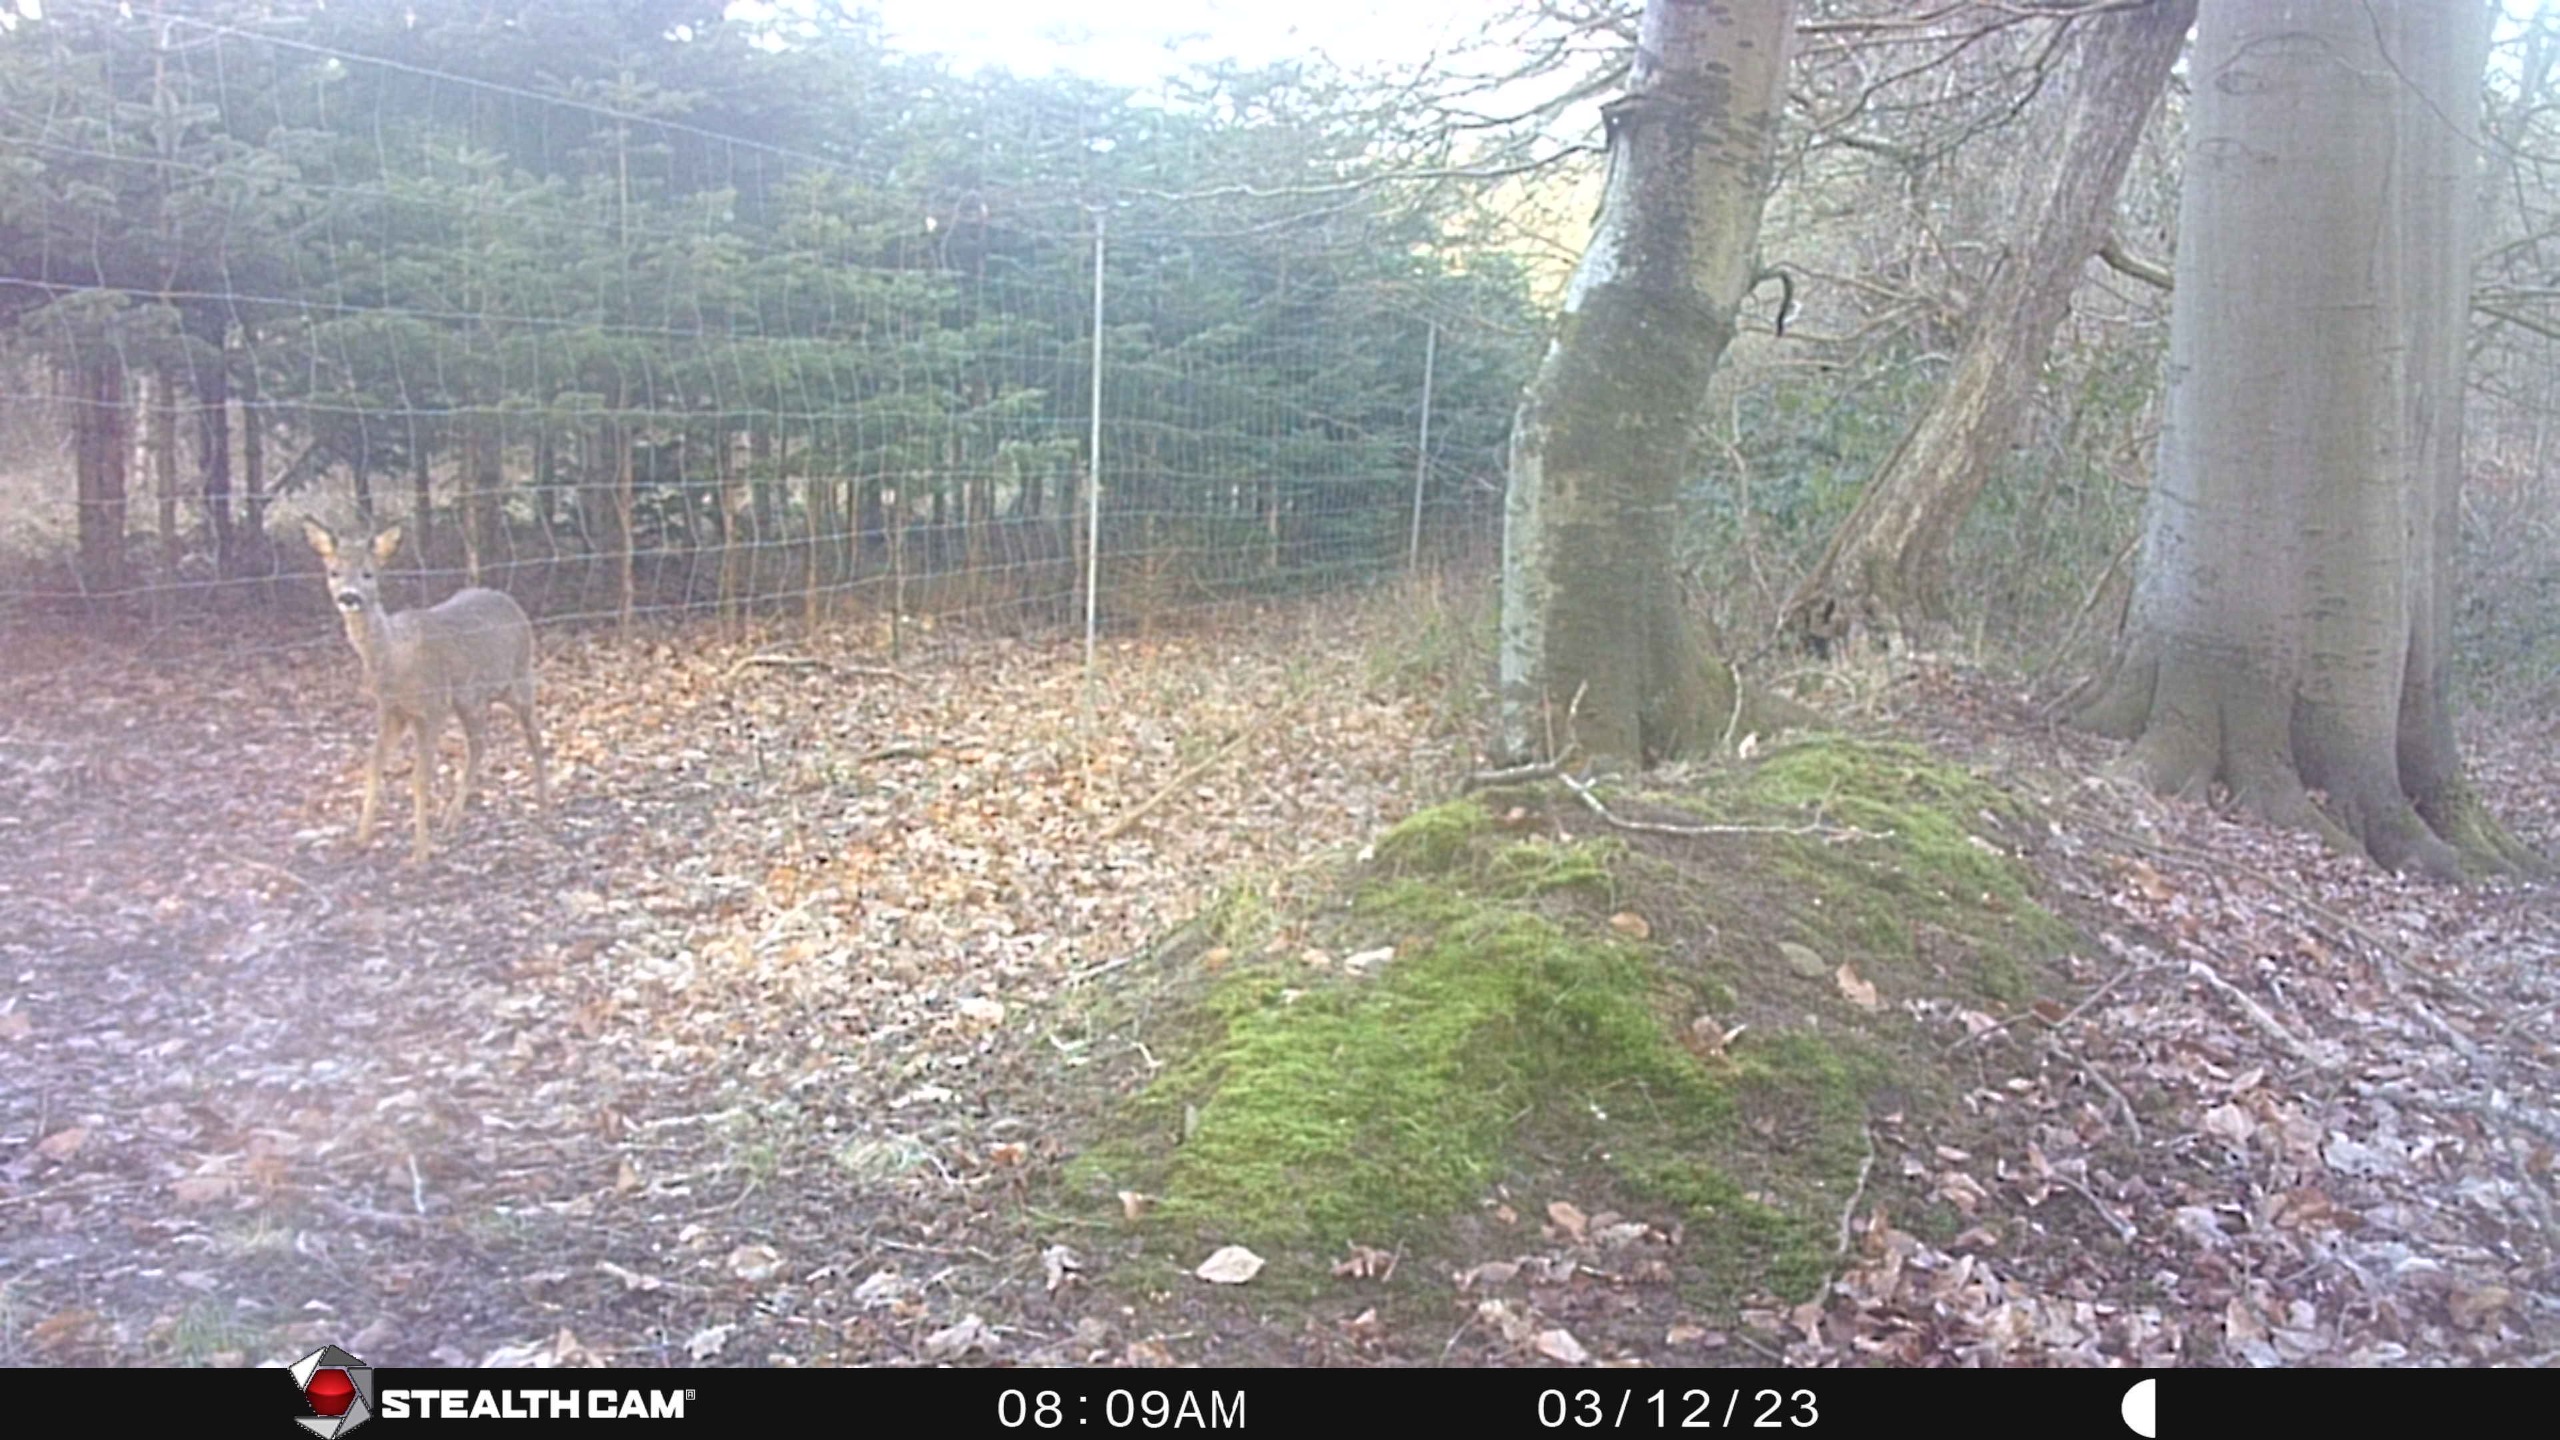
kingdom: Animalia
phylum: Chordata
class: Mammalia
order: Artiodactyla
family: Cervidae
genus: Capreolus
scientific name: Capreolus capreolus
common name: Rådyr
